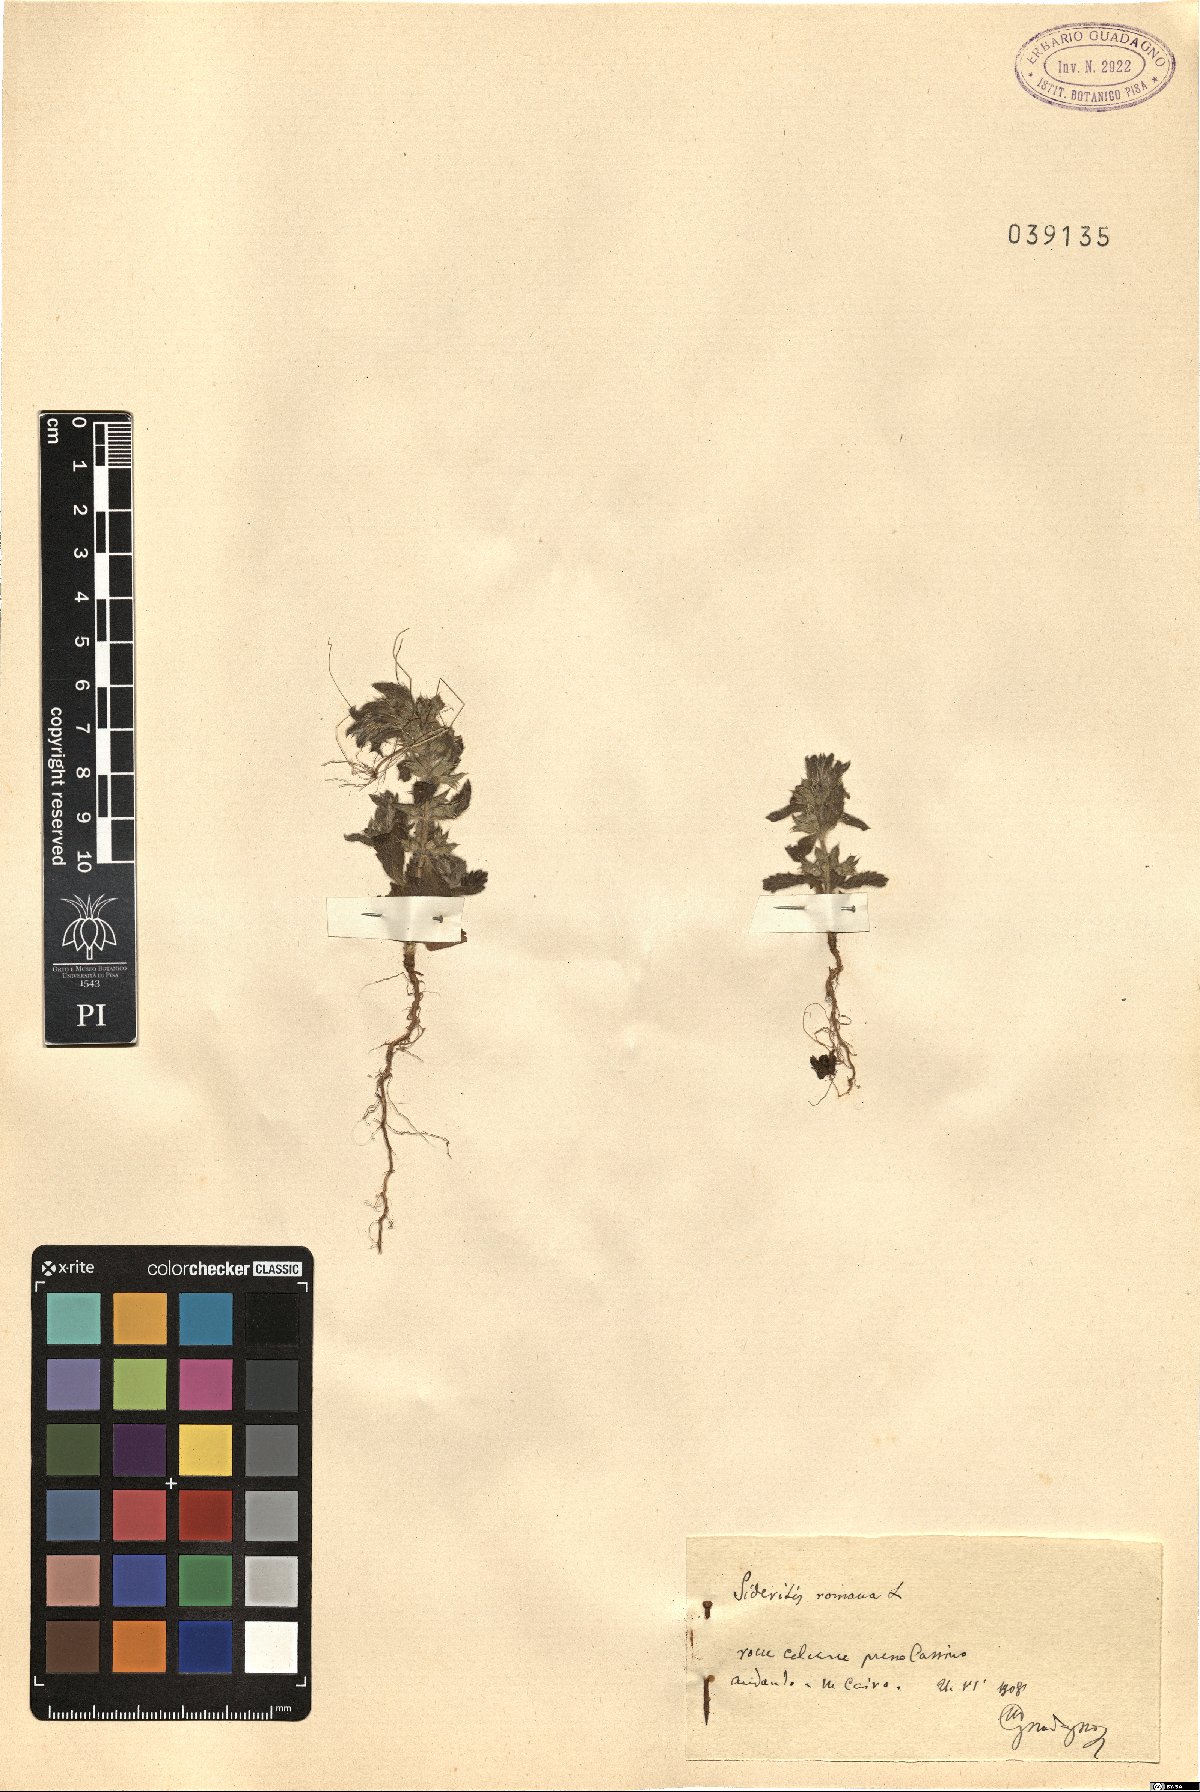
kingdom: Plantae
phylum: Tracheophyta
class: Magnoliopsida
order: Lamiales
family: Lamiaceae
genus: Sideritis
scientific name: Sideritis romana
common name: Simplebeak ironwort
